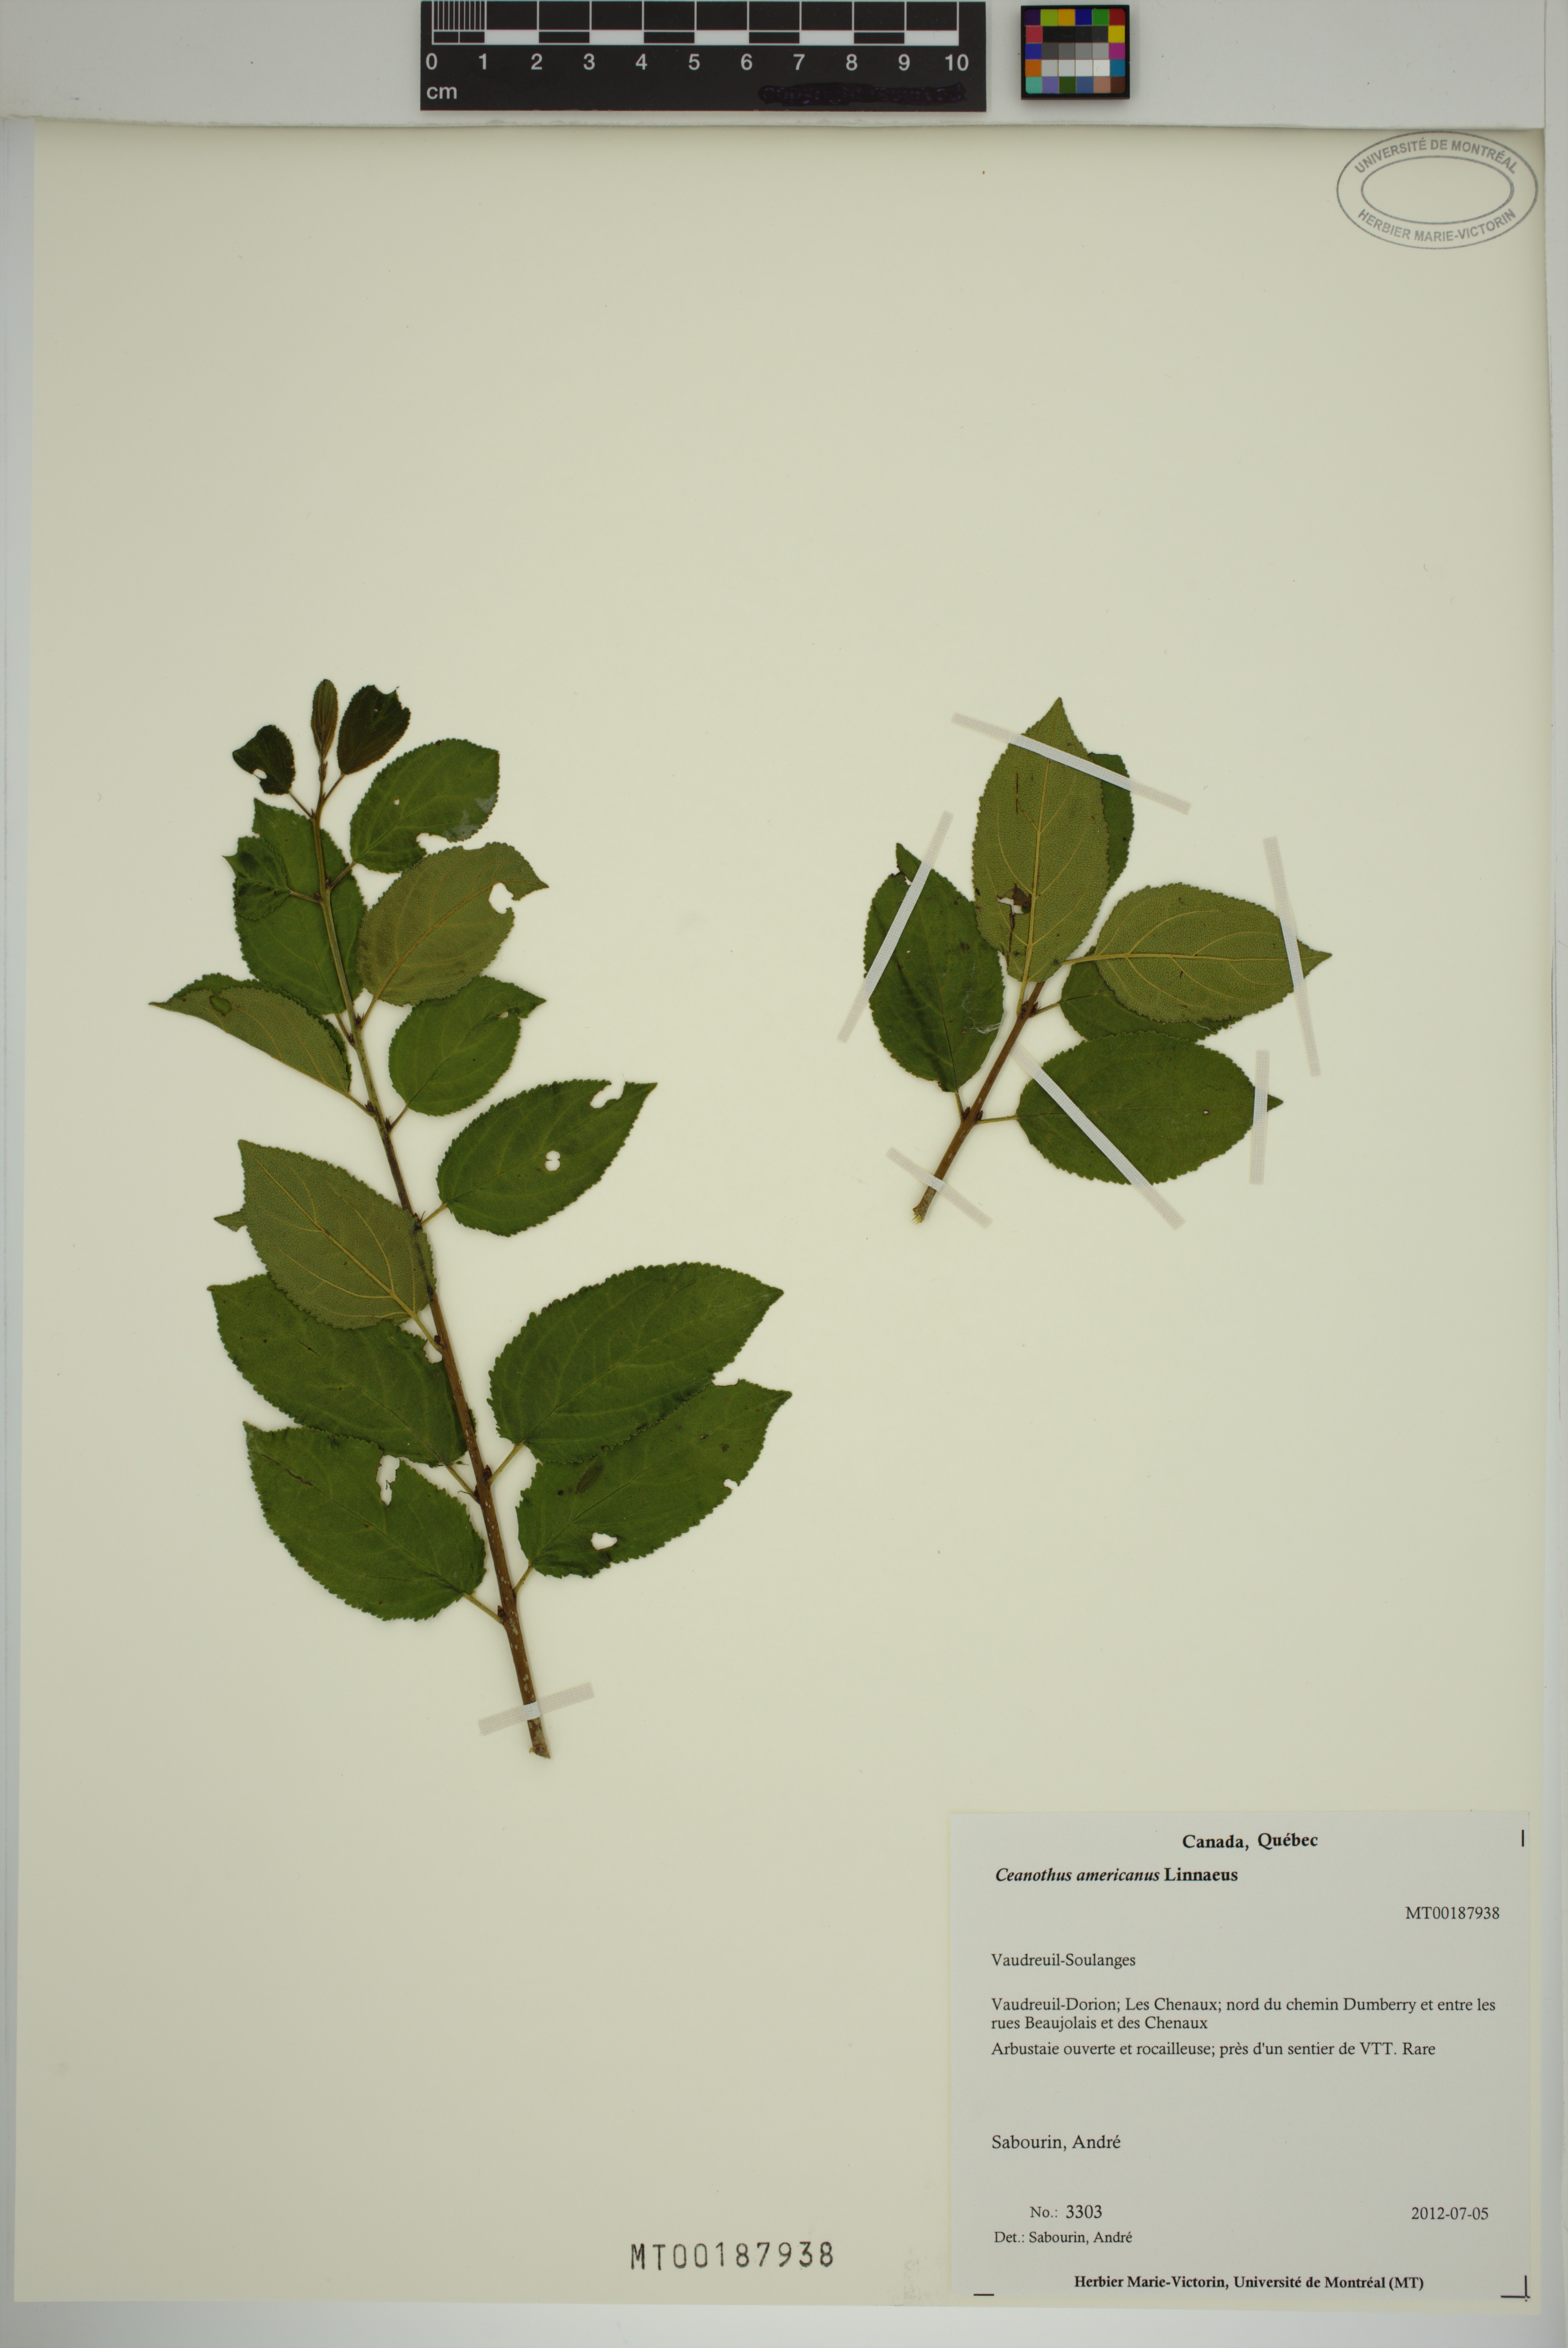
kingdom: Plantae
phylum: Tracheophyta
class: Magnoliopsida
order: Rosales
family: Rhamnaceae
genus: Ceanothus
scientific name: Ceanothus americanus
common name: Redroot
